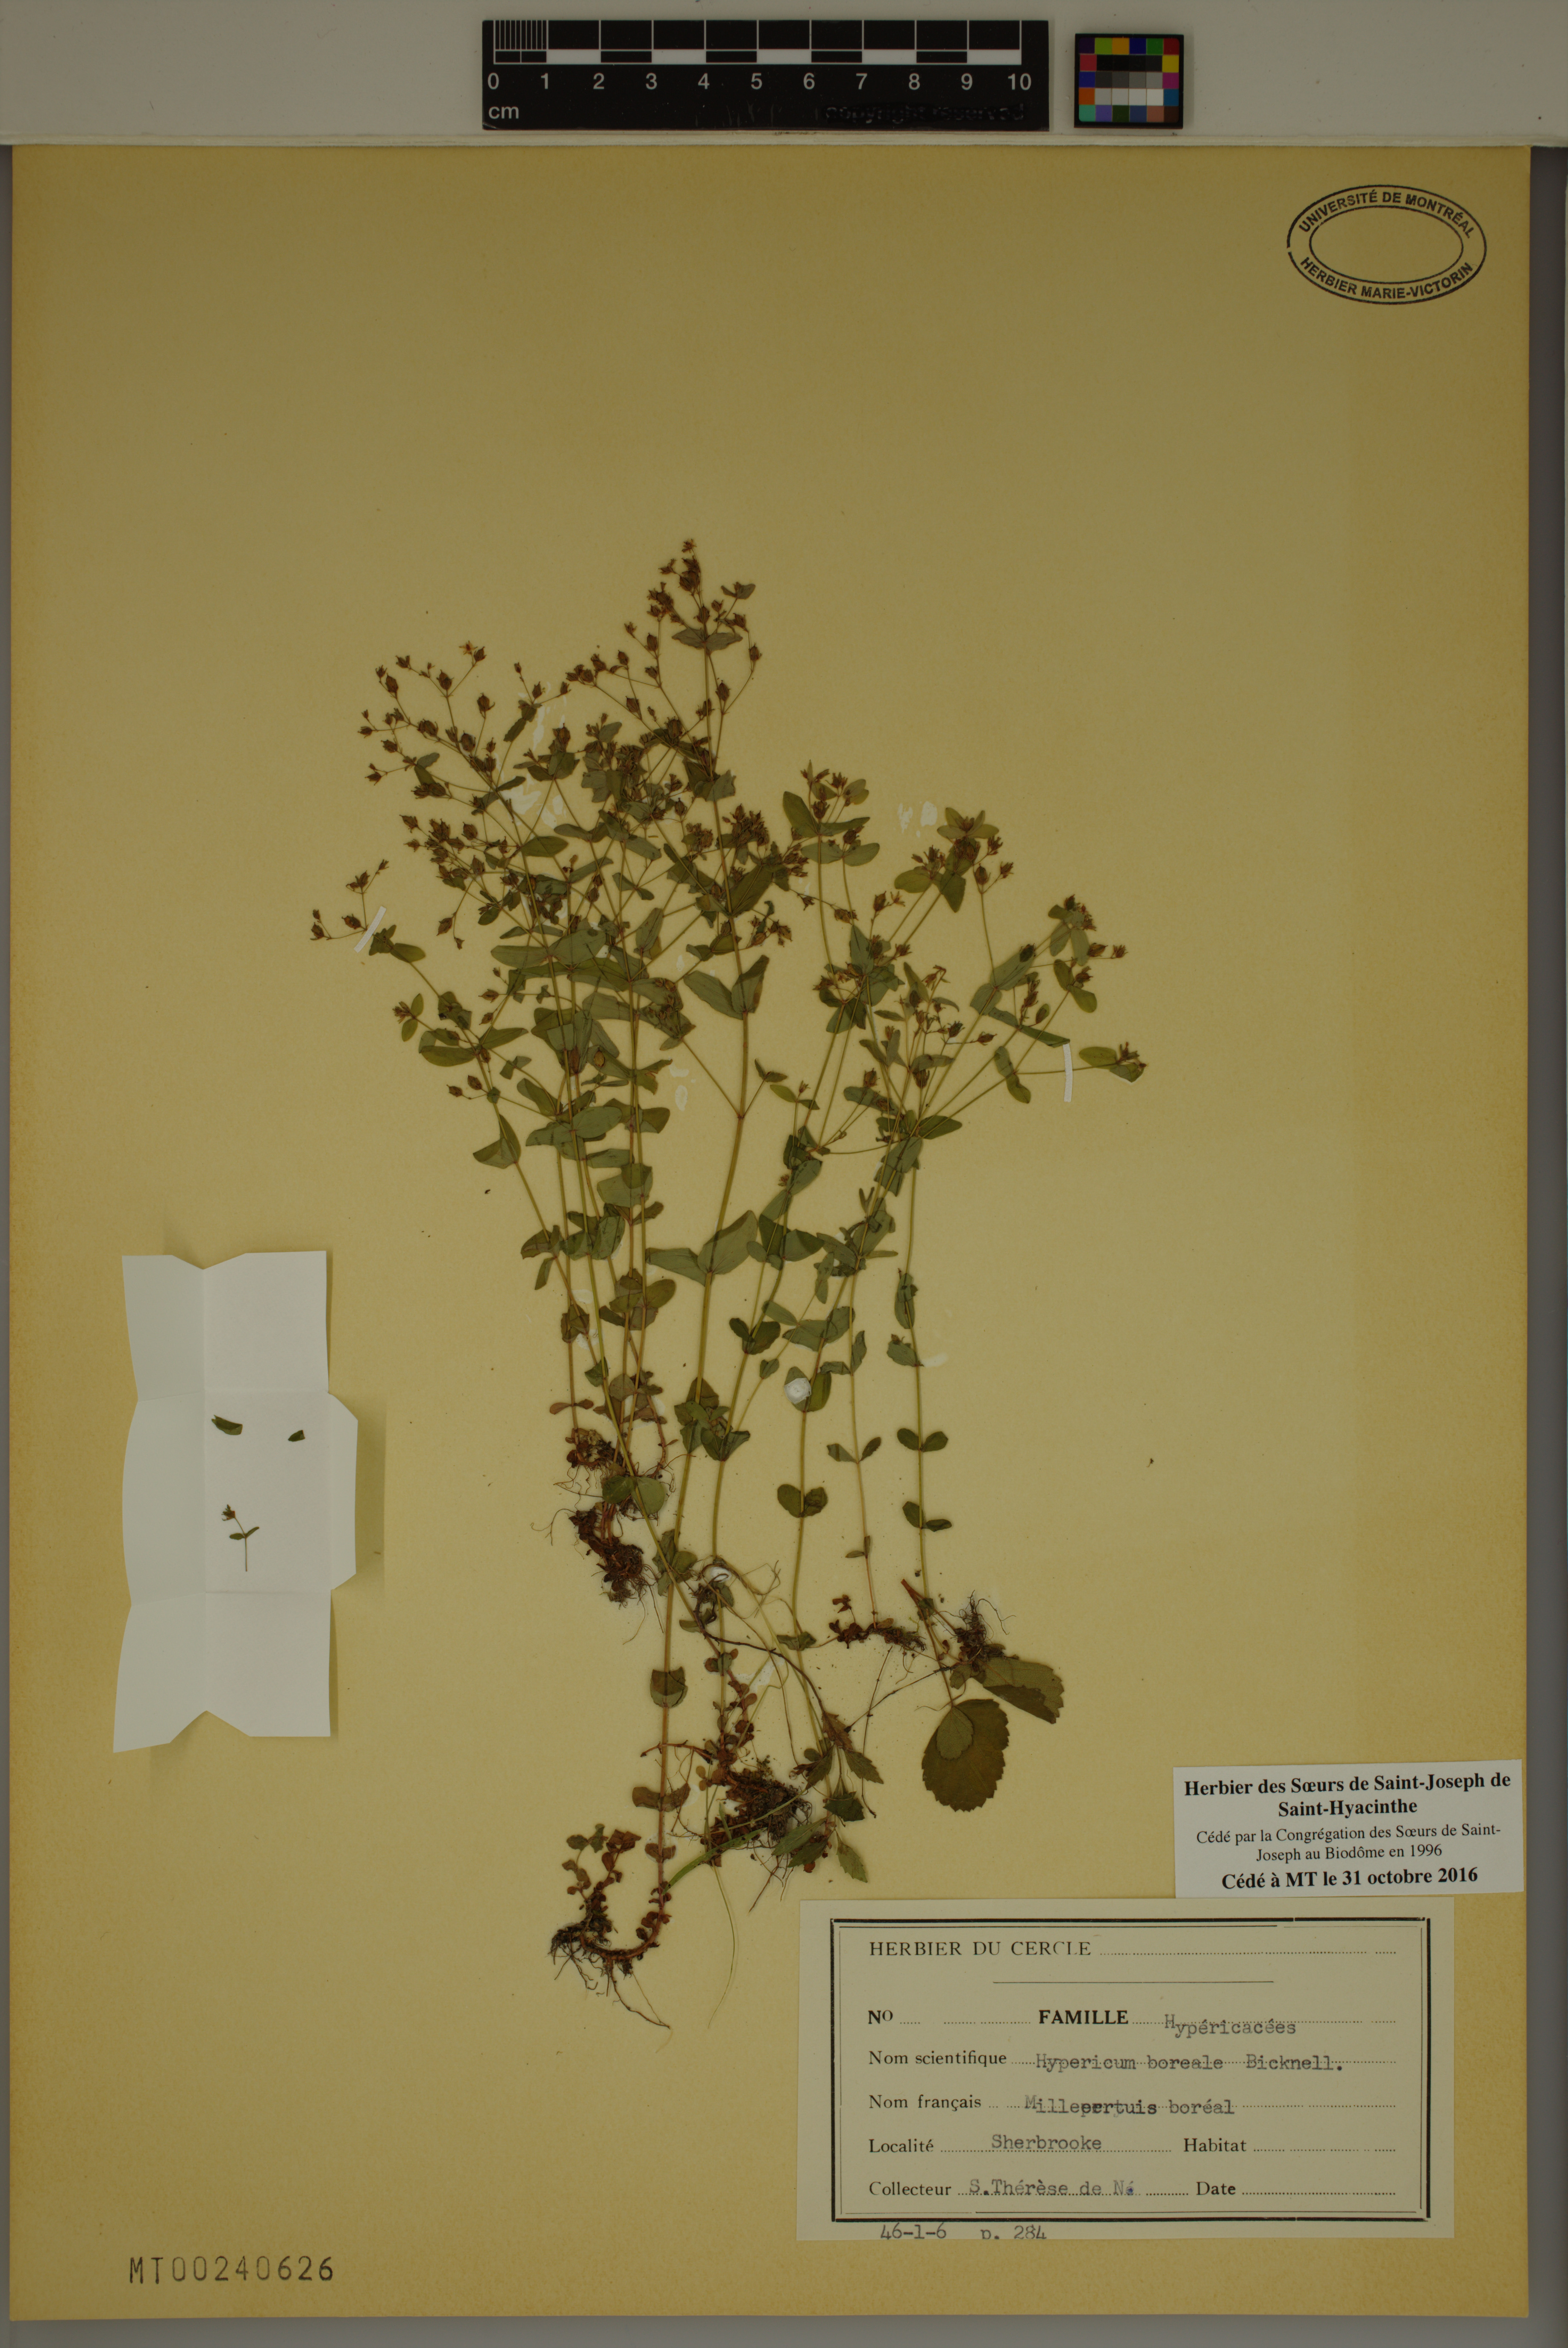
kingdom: Plantae
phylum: Tracheophyta
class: Magnoliopsida
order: Malpighiales
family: Hypericaceae
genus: Hypericum
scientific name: Hypericum boreale
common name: Northern bog st. john's-wort
